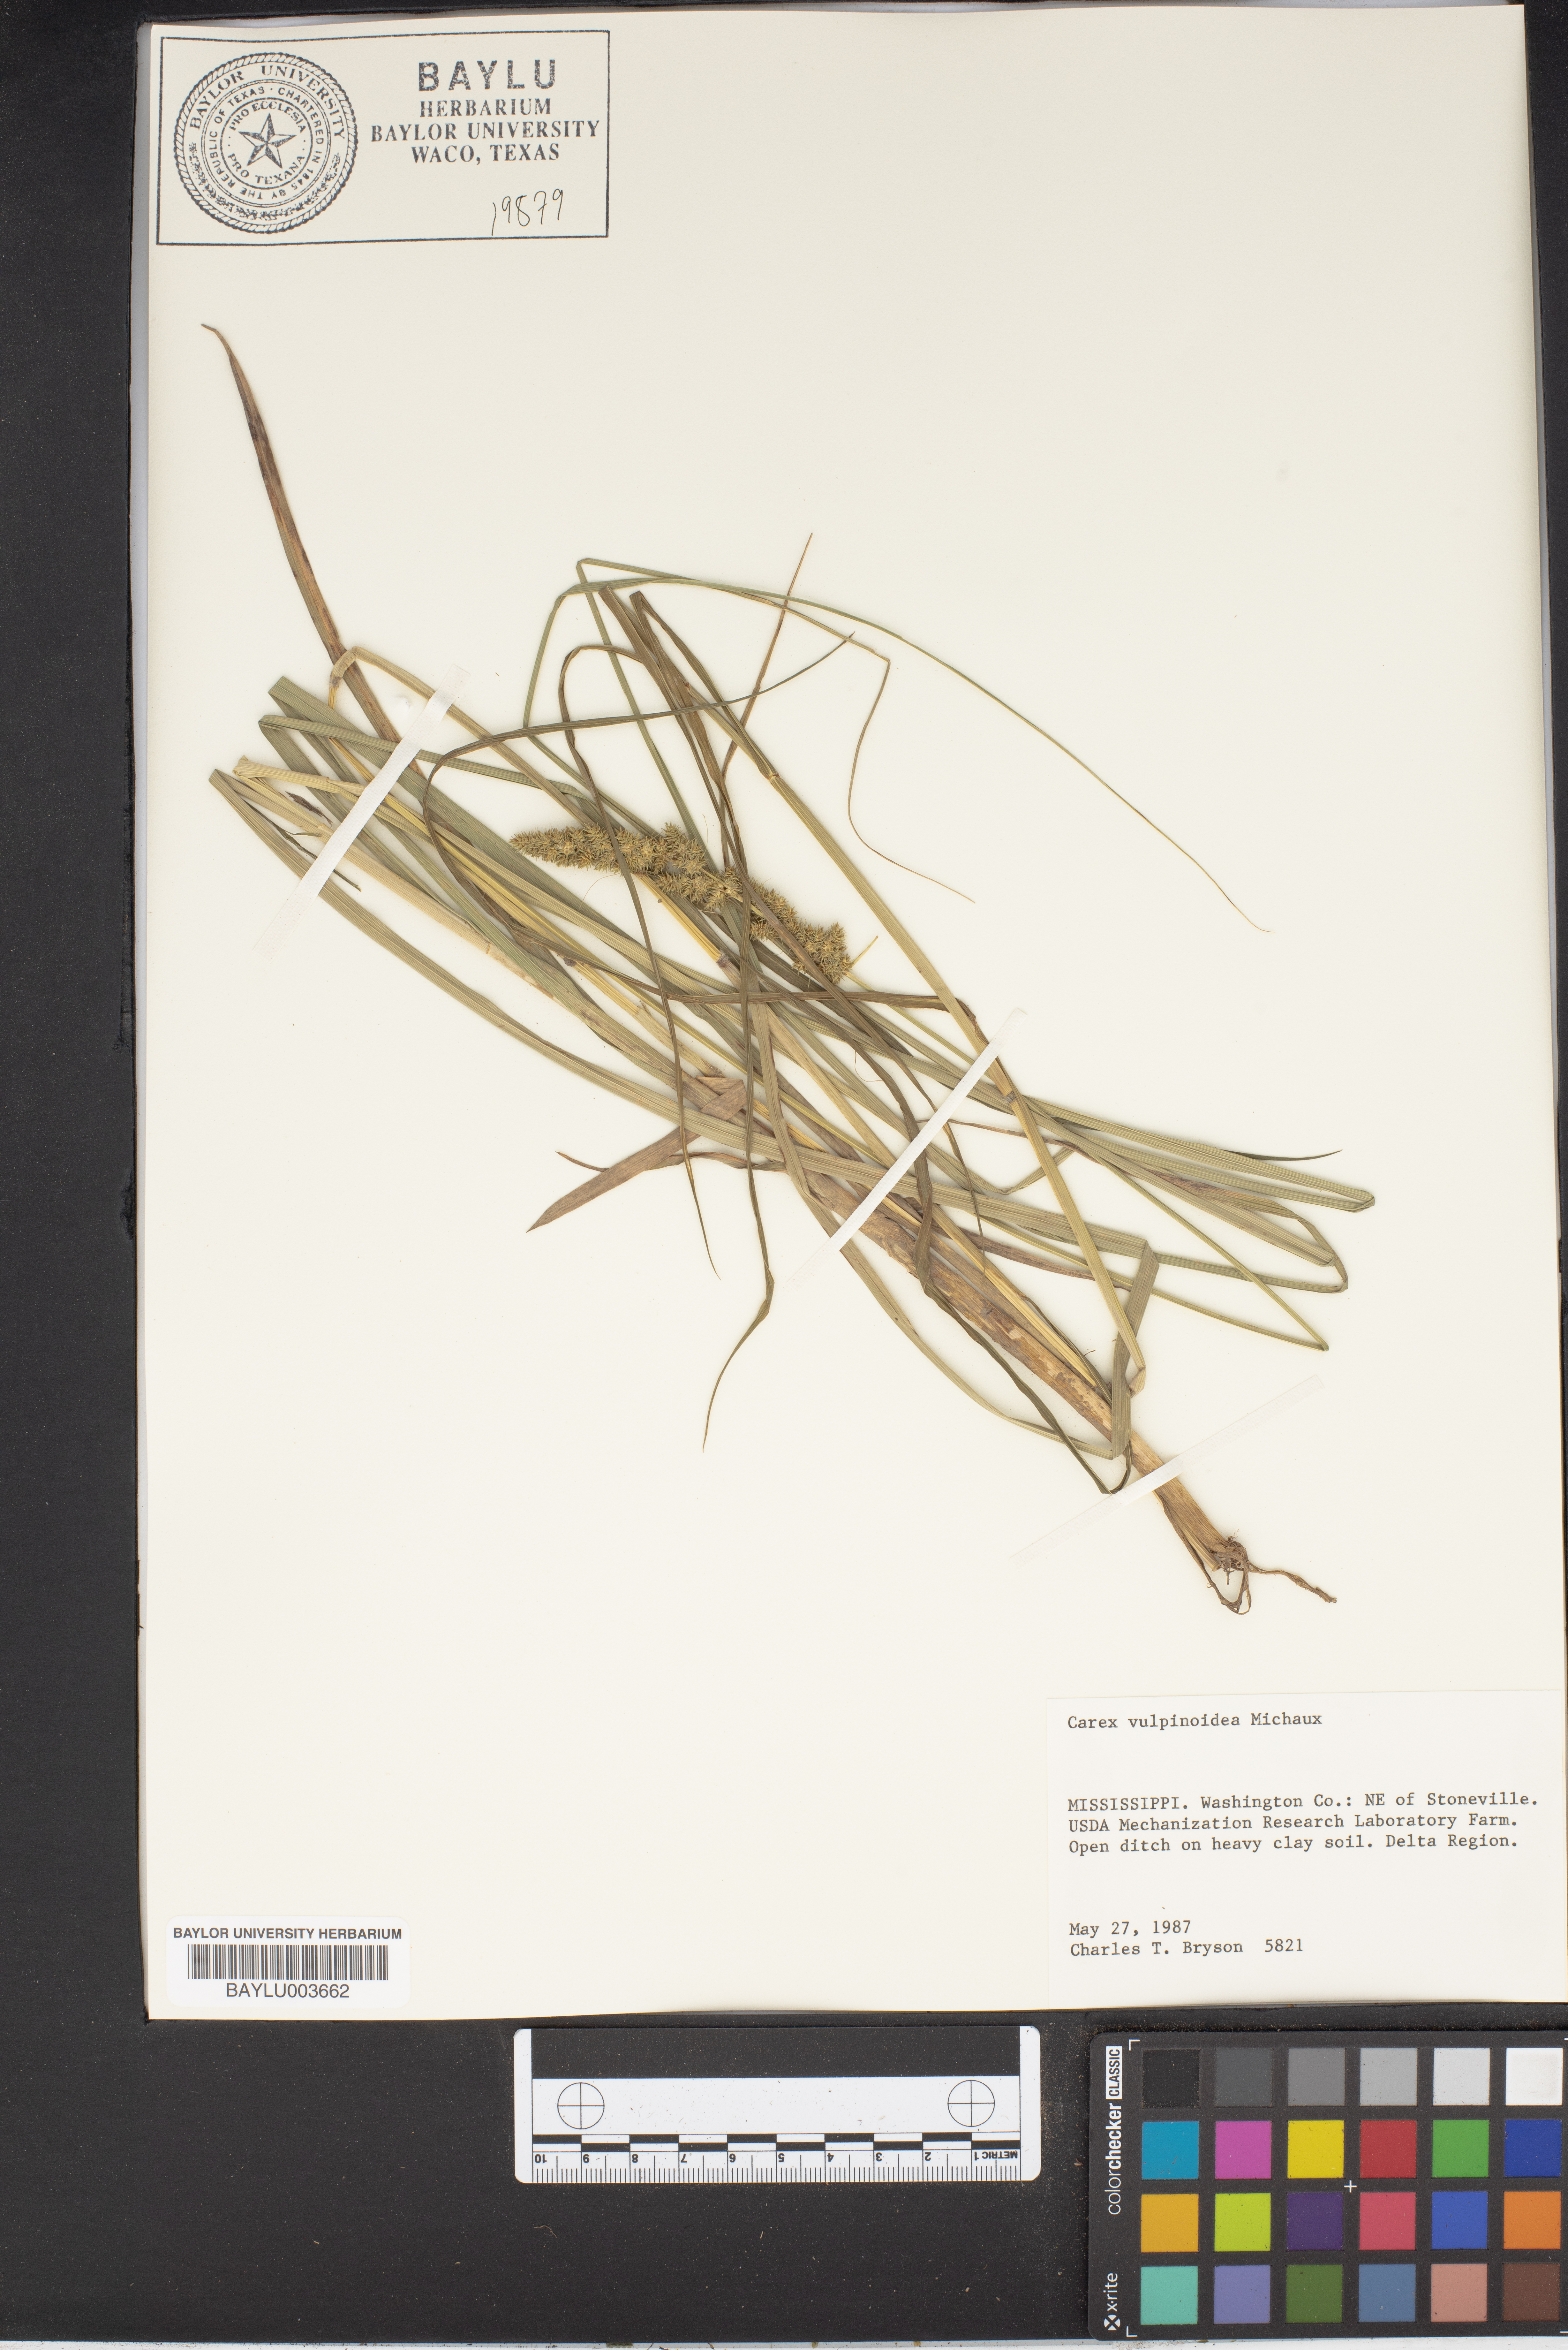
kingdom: Plantae
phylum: Tracheophyta
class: Liliopsida
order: Poales
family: Cyperaceae
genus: Carex
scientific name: Carex vulpinoidea
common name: American fox-sedge
